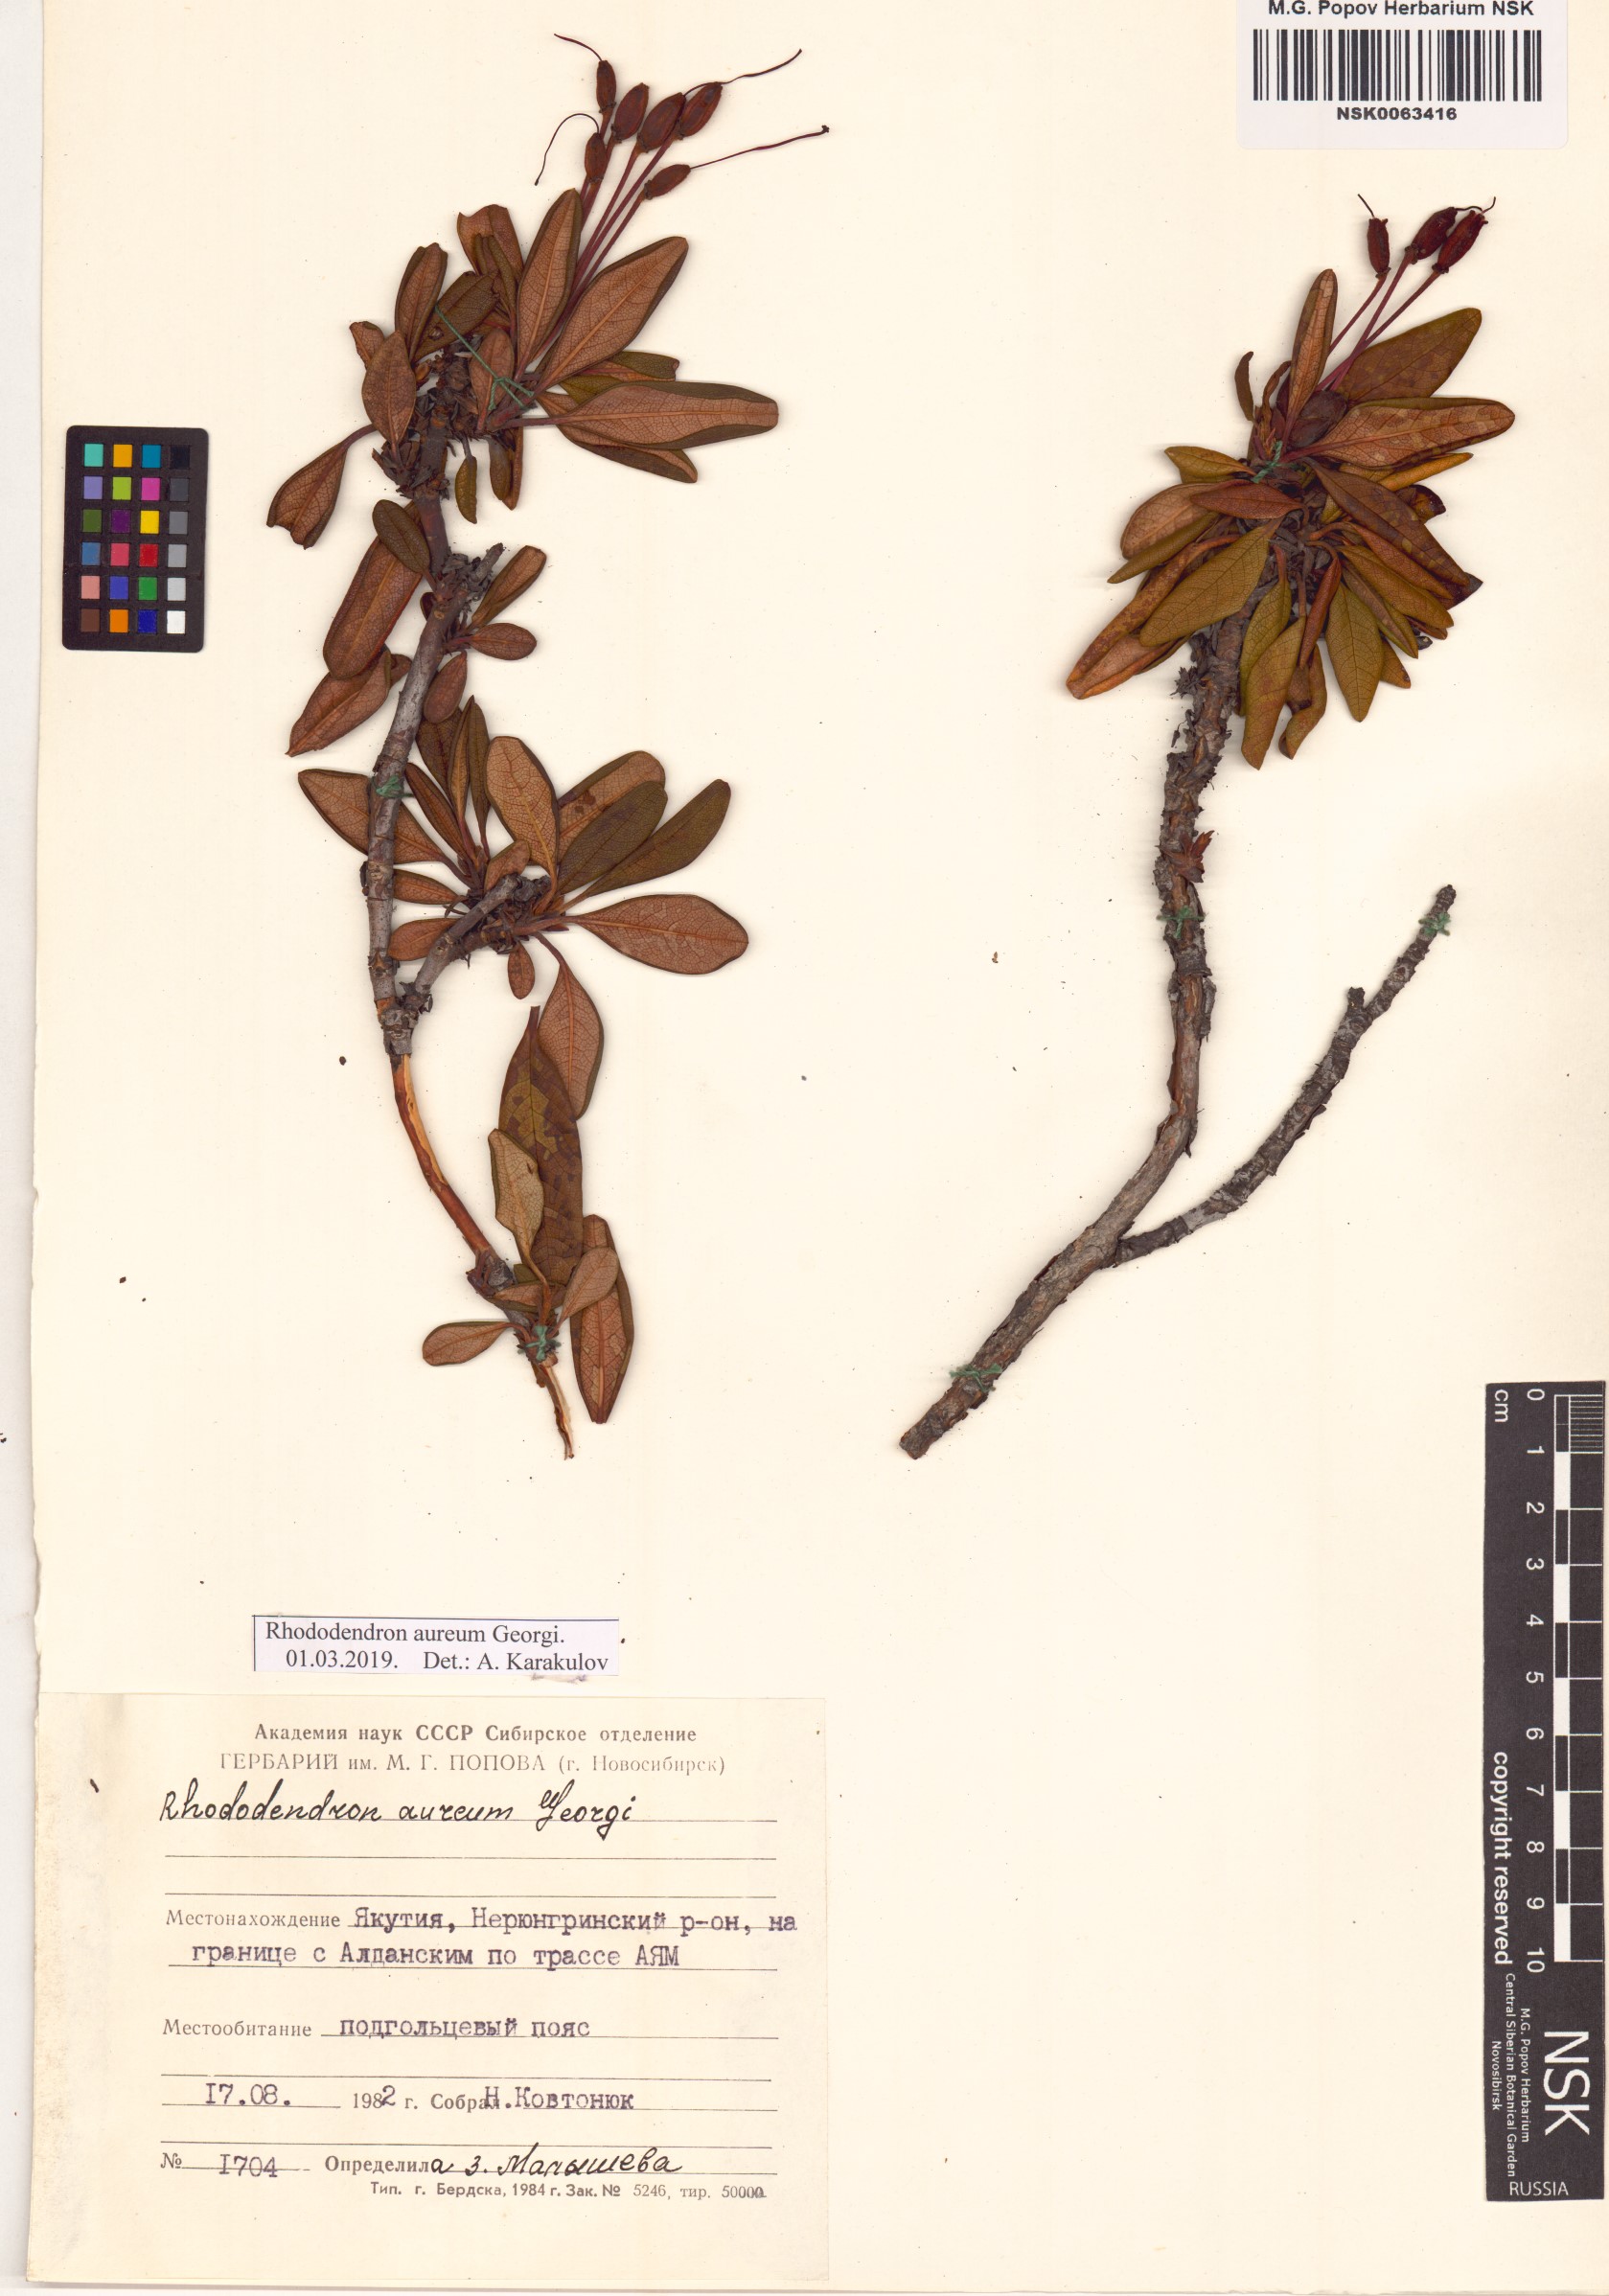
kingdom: Plantae
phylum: Tracheophyta
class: Magnoliopsida
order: Ericales
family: Ericaceae
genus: Rhododendron
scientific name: Rhododendron aureum
